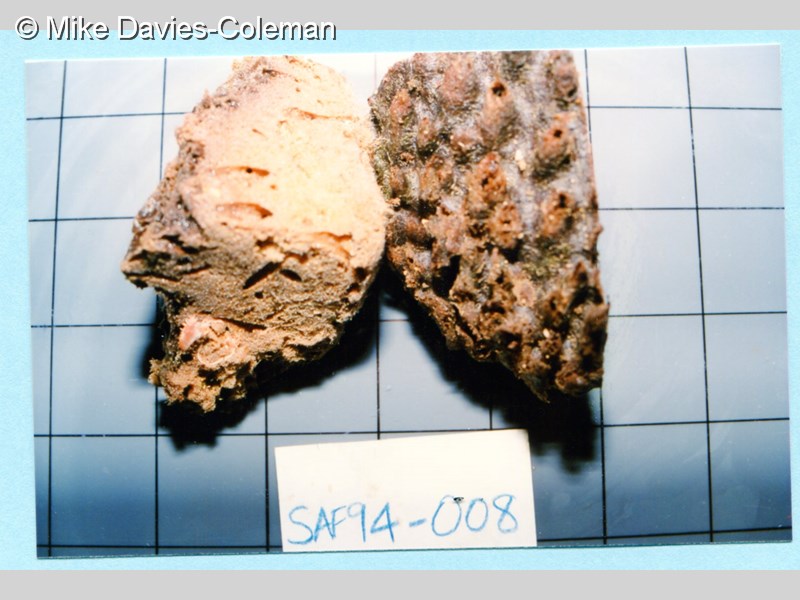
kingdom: Animalia
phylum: Porifera
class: Demospongiae
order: Haplosclerida
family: Phloeodictyidae
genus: Oceanapia
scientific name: Oceanapia seychellensis
